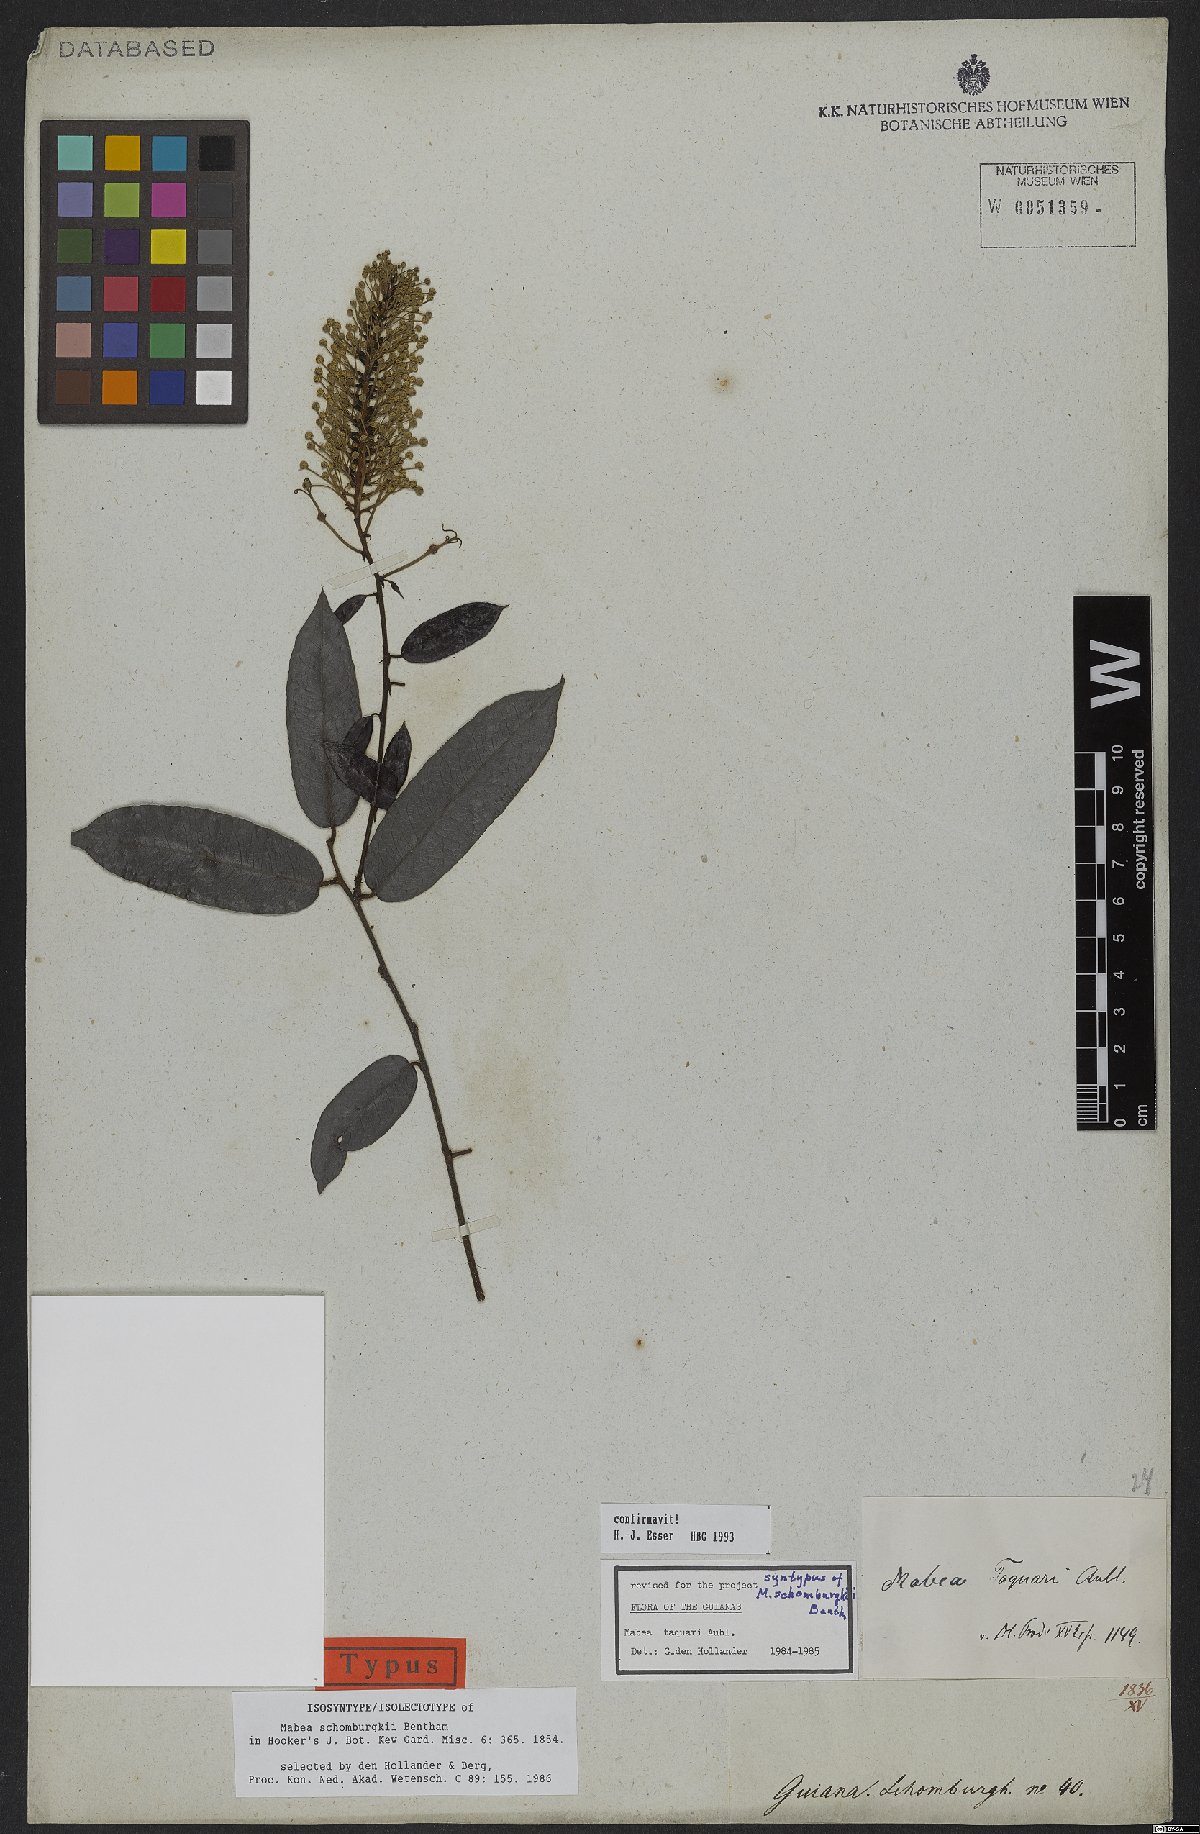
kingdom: Plantae
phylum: Tracheophyta
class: Magnoliopsida
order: Malpighiales
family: Euphorbiaceae
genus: Mabea
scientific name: Mabea taquari
